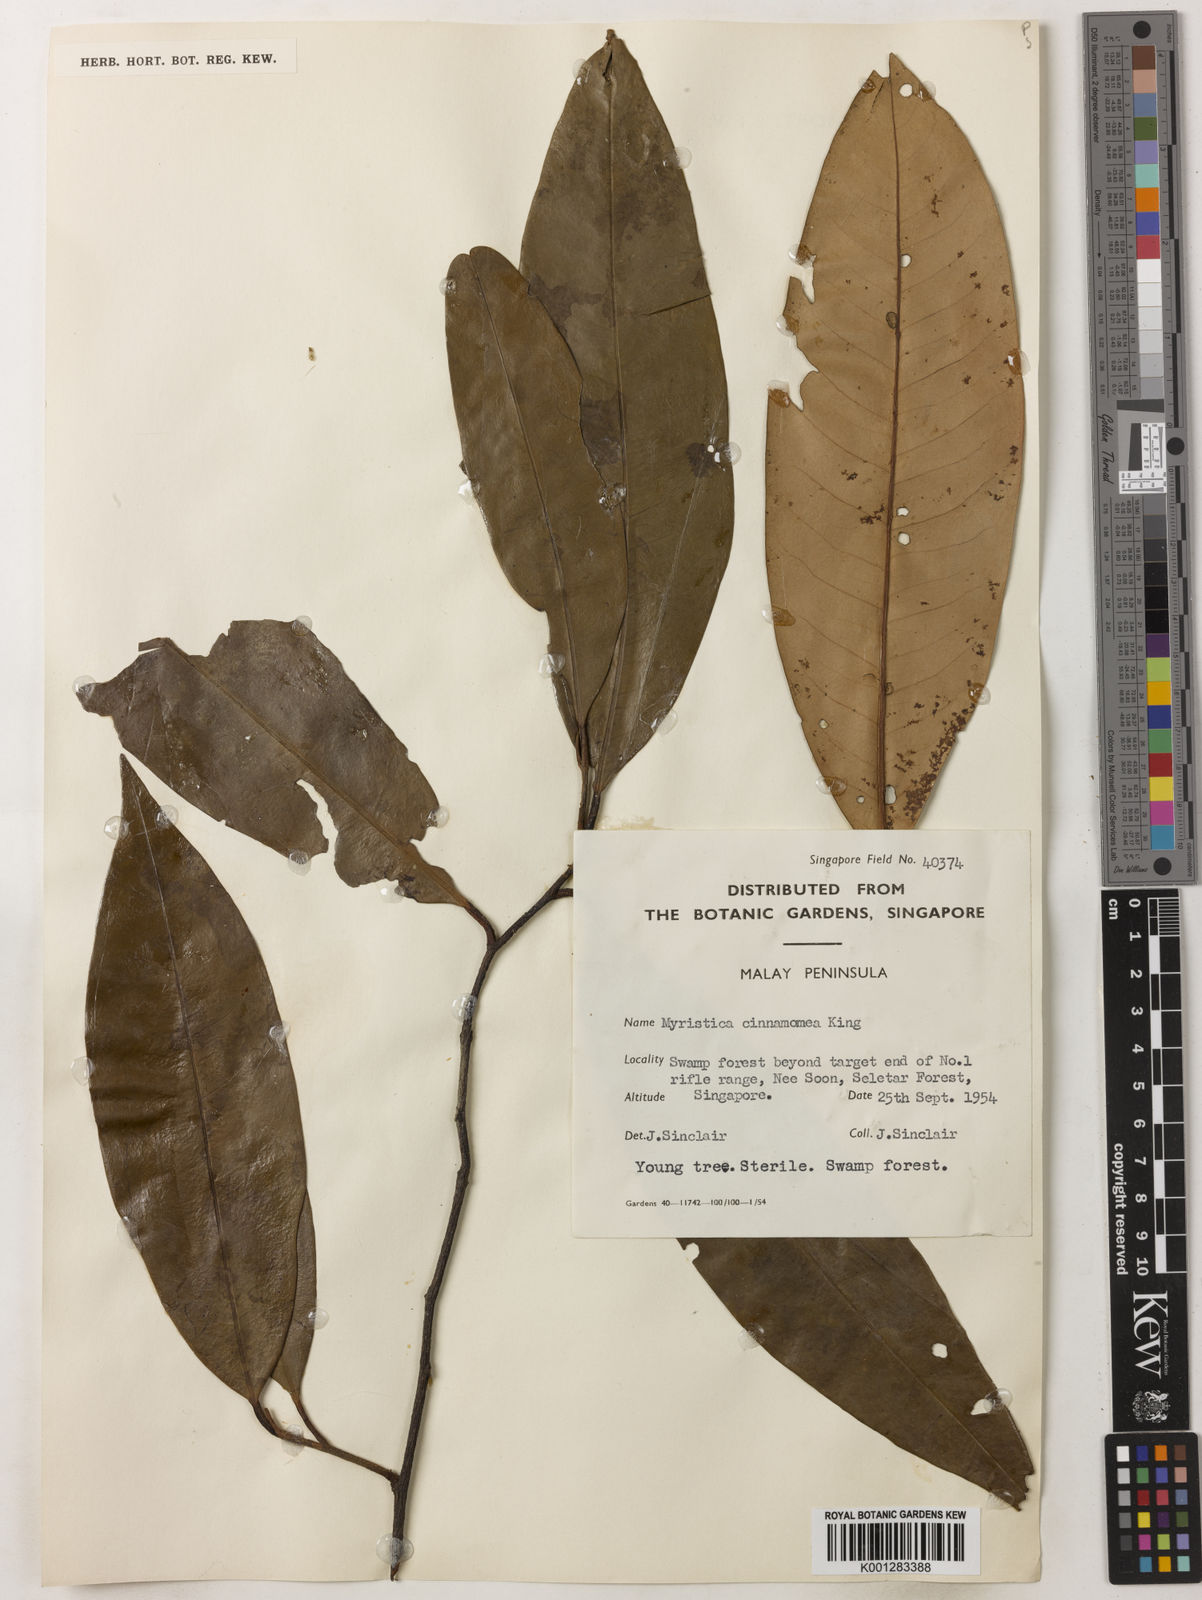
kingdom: Plantae
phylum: Tracheophyta
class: Magnoliopsida
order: Magnoliales
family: Myristicaceae
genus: Myristica
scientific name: Myristica cinnamomea
